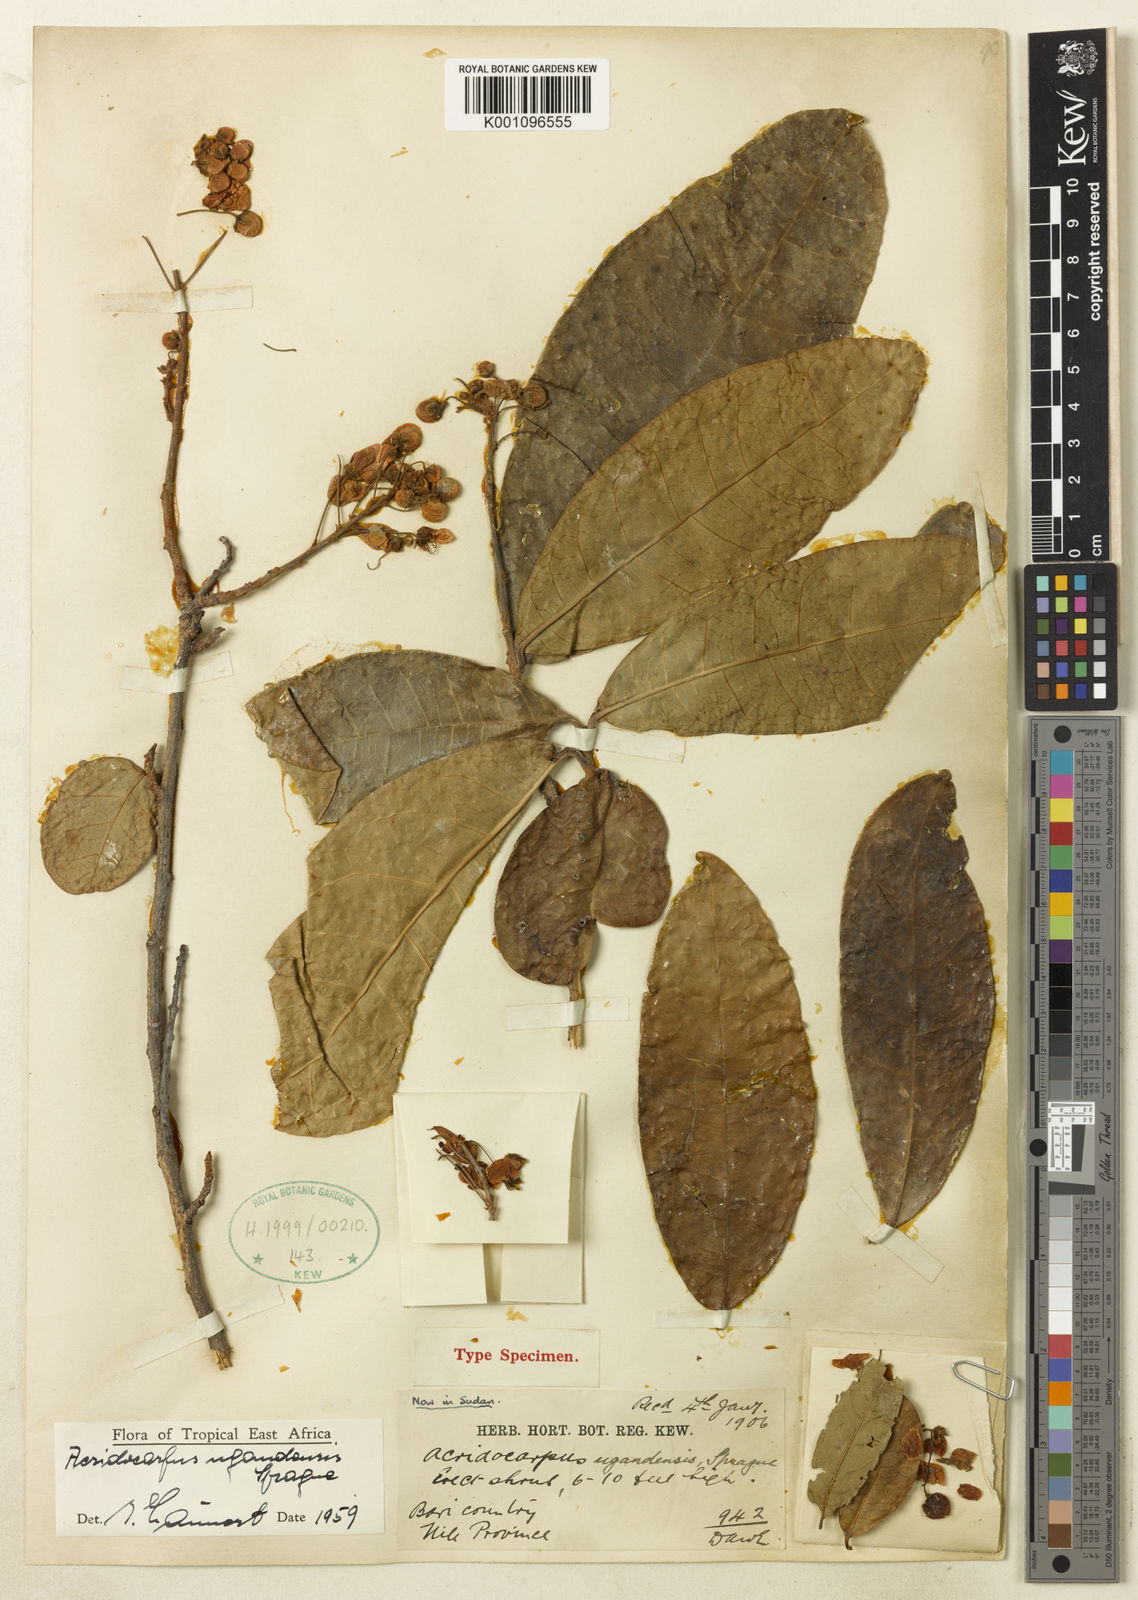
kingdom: Plantae
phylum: Tracheophyta
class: Magnoliopsida
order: Malpighiales
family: Malpighiaceae
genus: Acridocarpus
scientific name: Acridocarpus ugandensis
